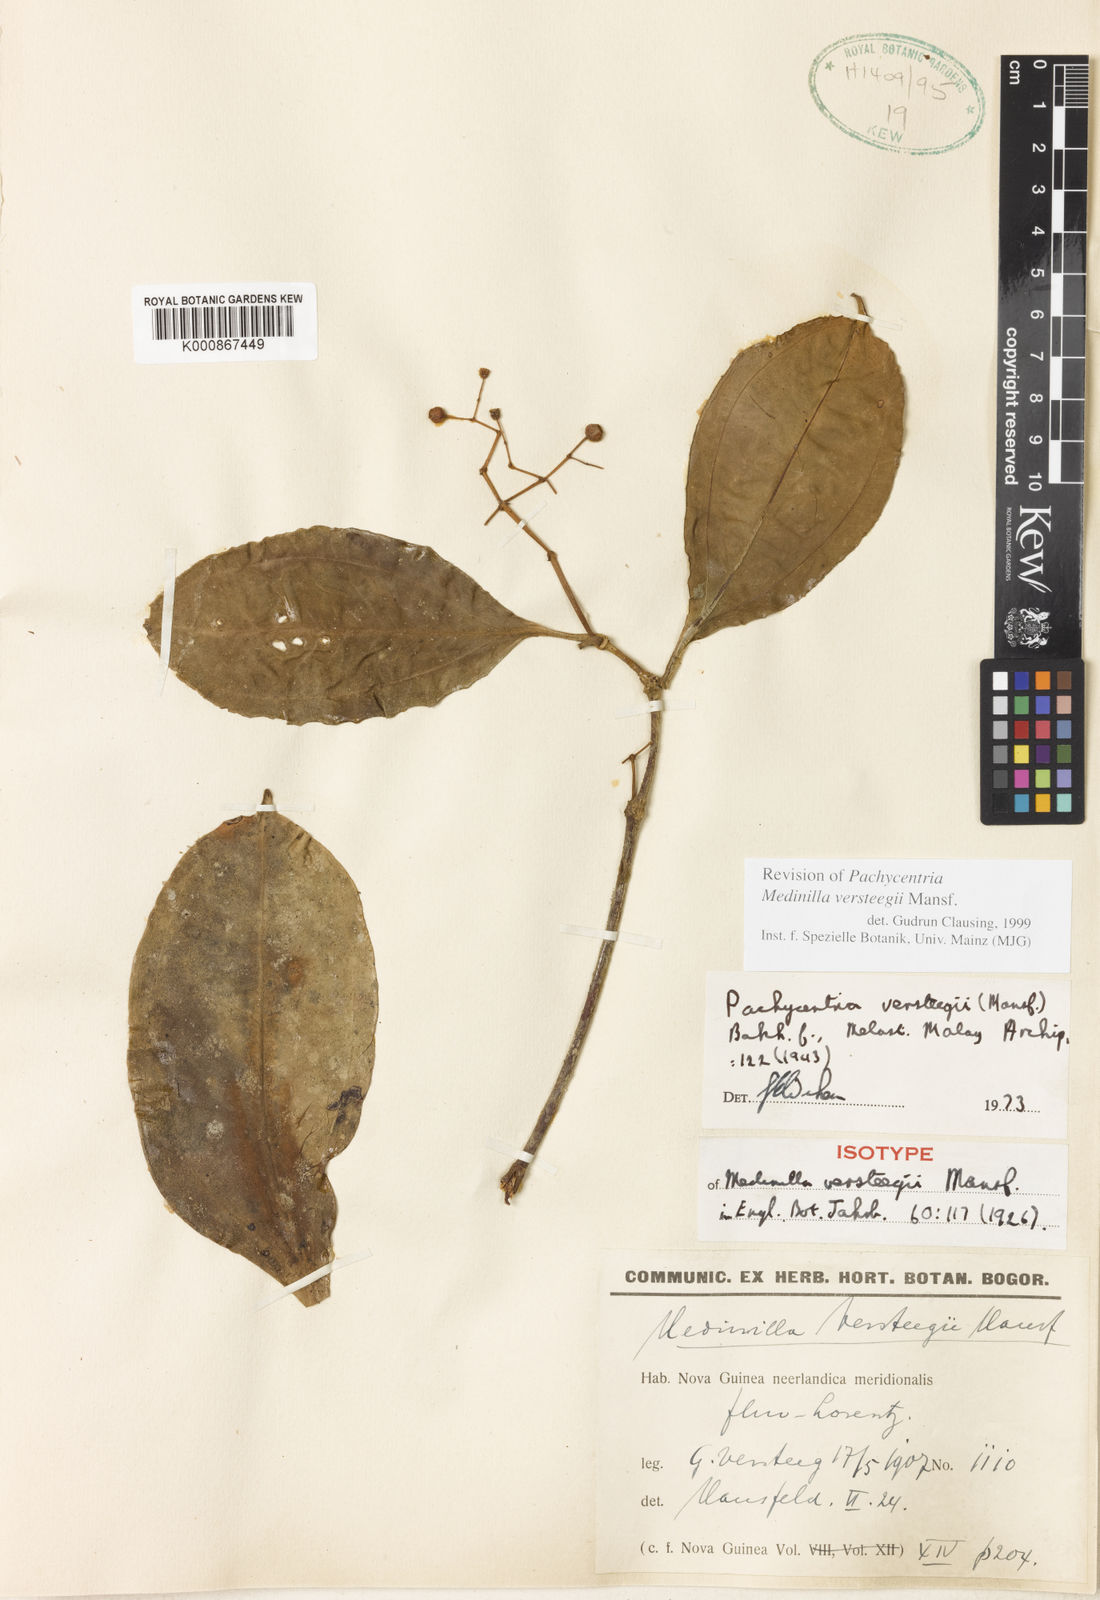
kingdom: Plantae
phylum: Tracheophyta
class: Magnoliopsida
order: Myrtales
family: Melastomataceae
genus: Medinilla
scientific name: Medinilla versteegii
